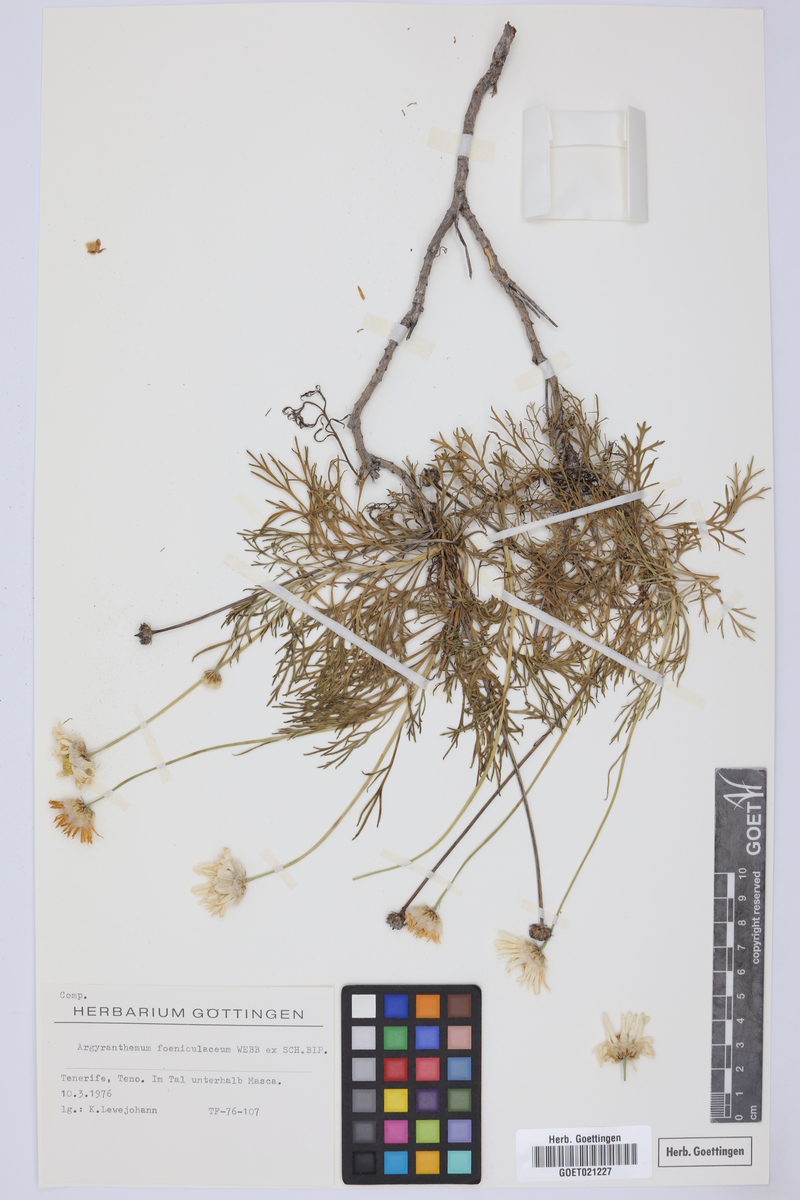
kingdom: Plantae
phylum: Tracheophyta
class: Magnoliopsida
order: Asterales
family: Asteraceae
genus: Argyranthemum
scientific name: Argyranthemum foeniculaceum
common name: Canary island marguerite
